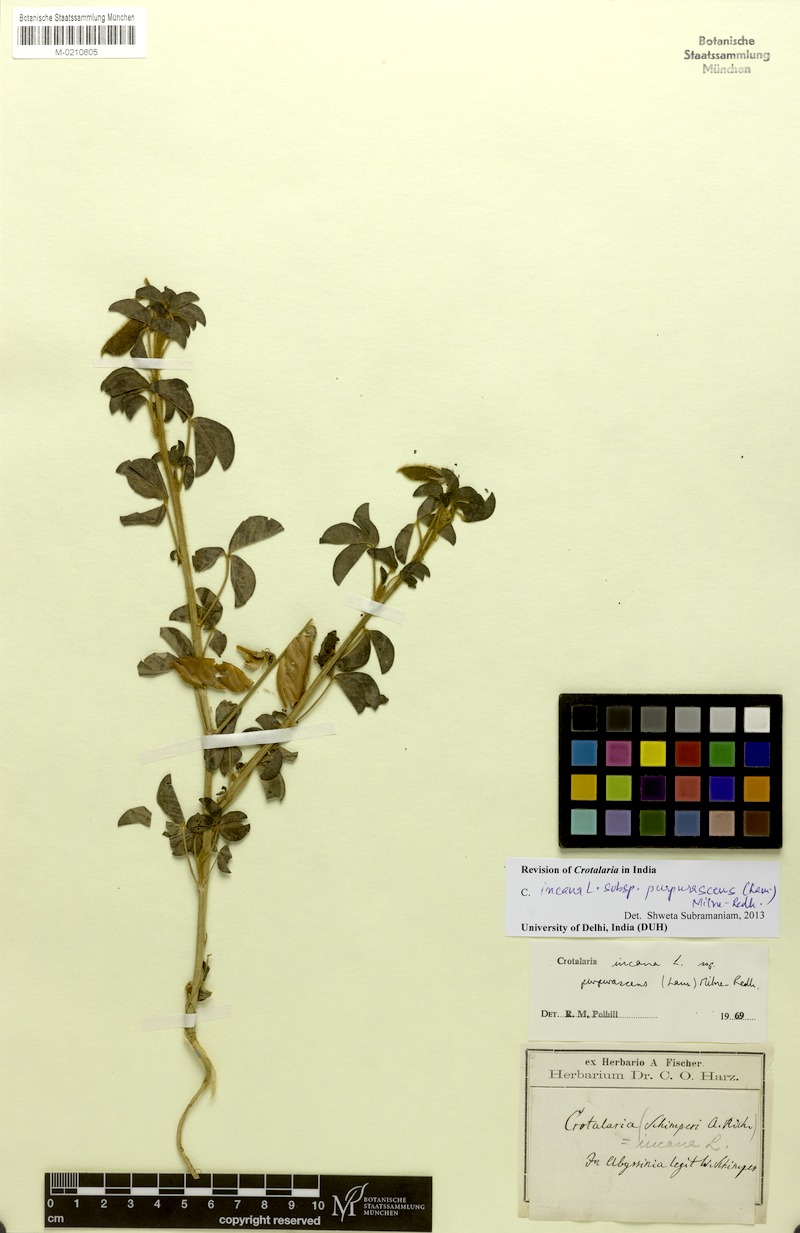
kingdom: Plantae
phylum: Tracheophyta
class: Magnoliopsida
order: Fabales
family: Fabaceae
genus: Crotalaria
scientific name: Crotalaria incana
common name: Shakeshake
